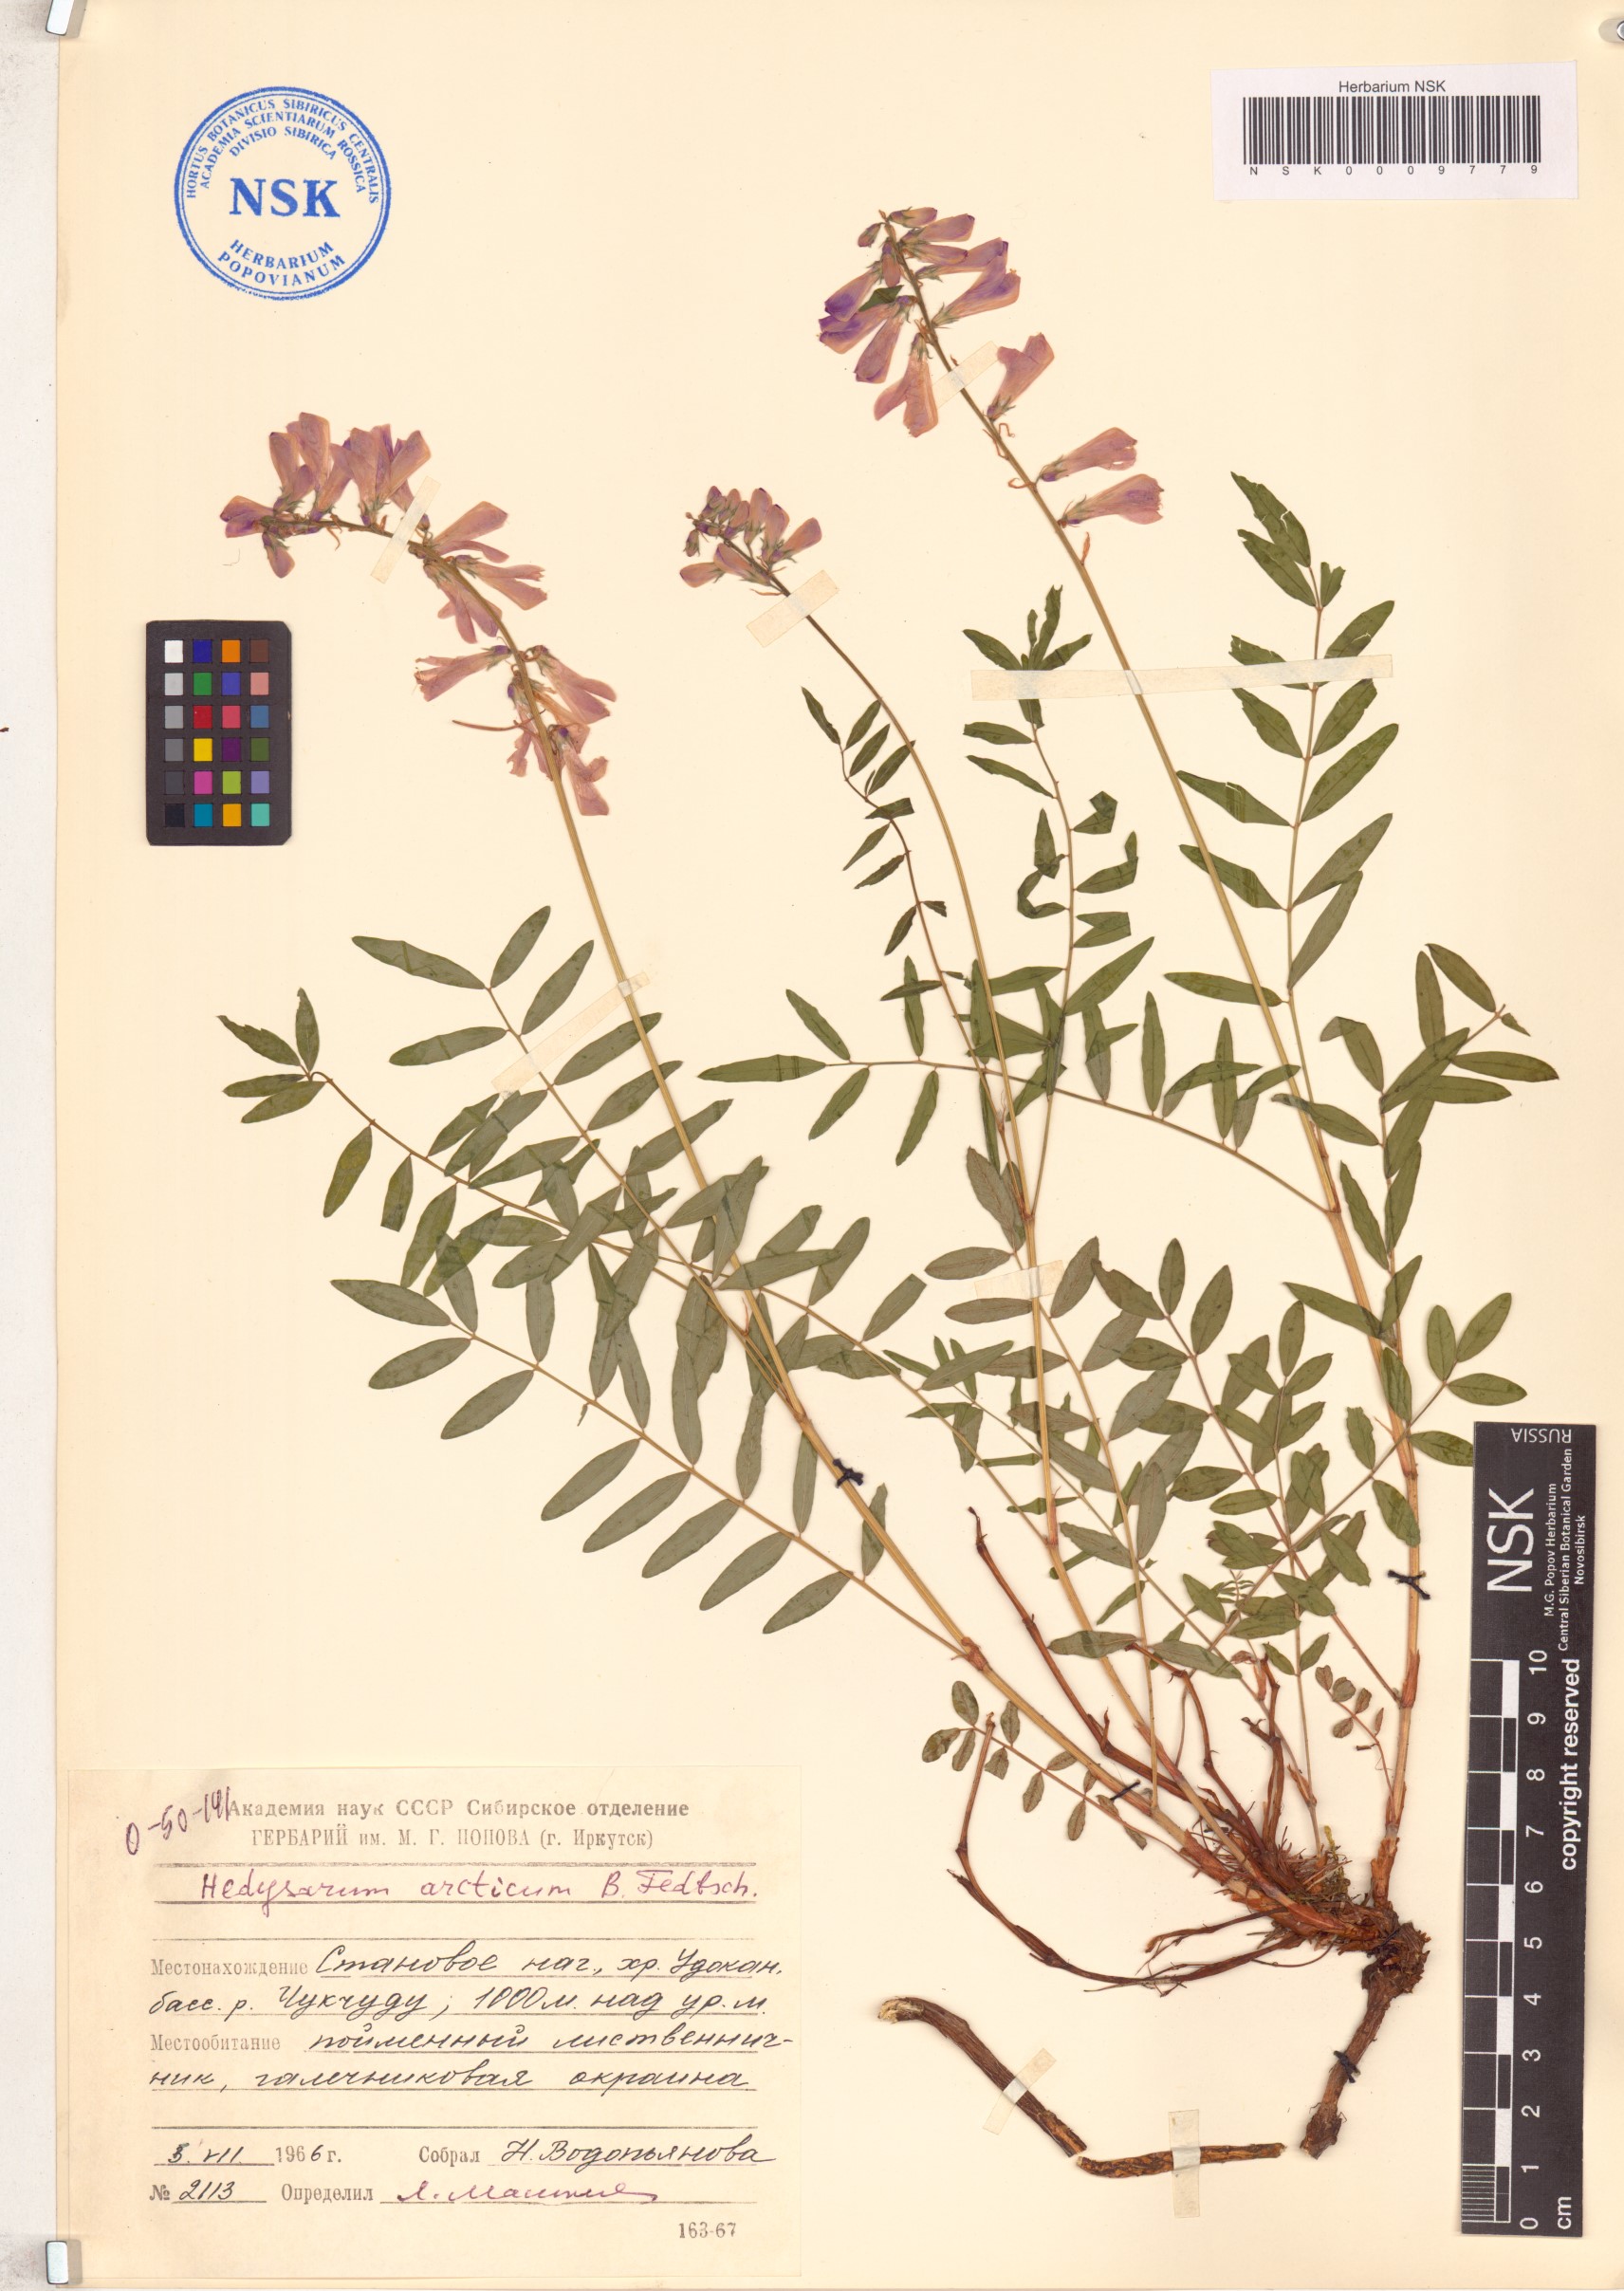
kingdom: Plantae
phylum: Tracheophyta
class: Magnoliopsida
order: Fabales
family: Fabaceae
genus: Hedysarum
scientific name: Hedysarum hedysaroides
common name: Alpine french-honeysuckle
